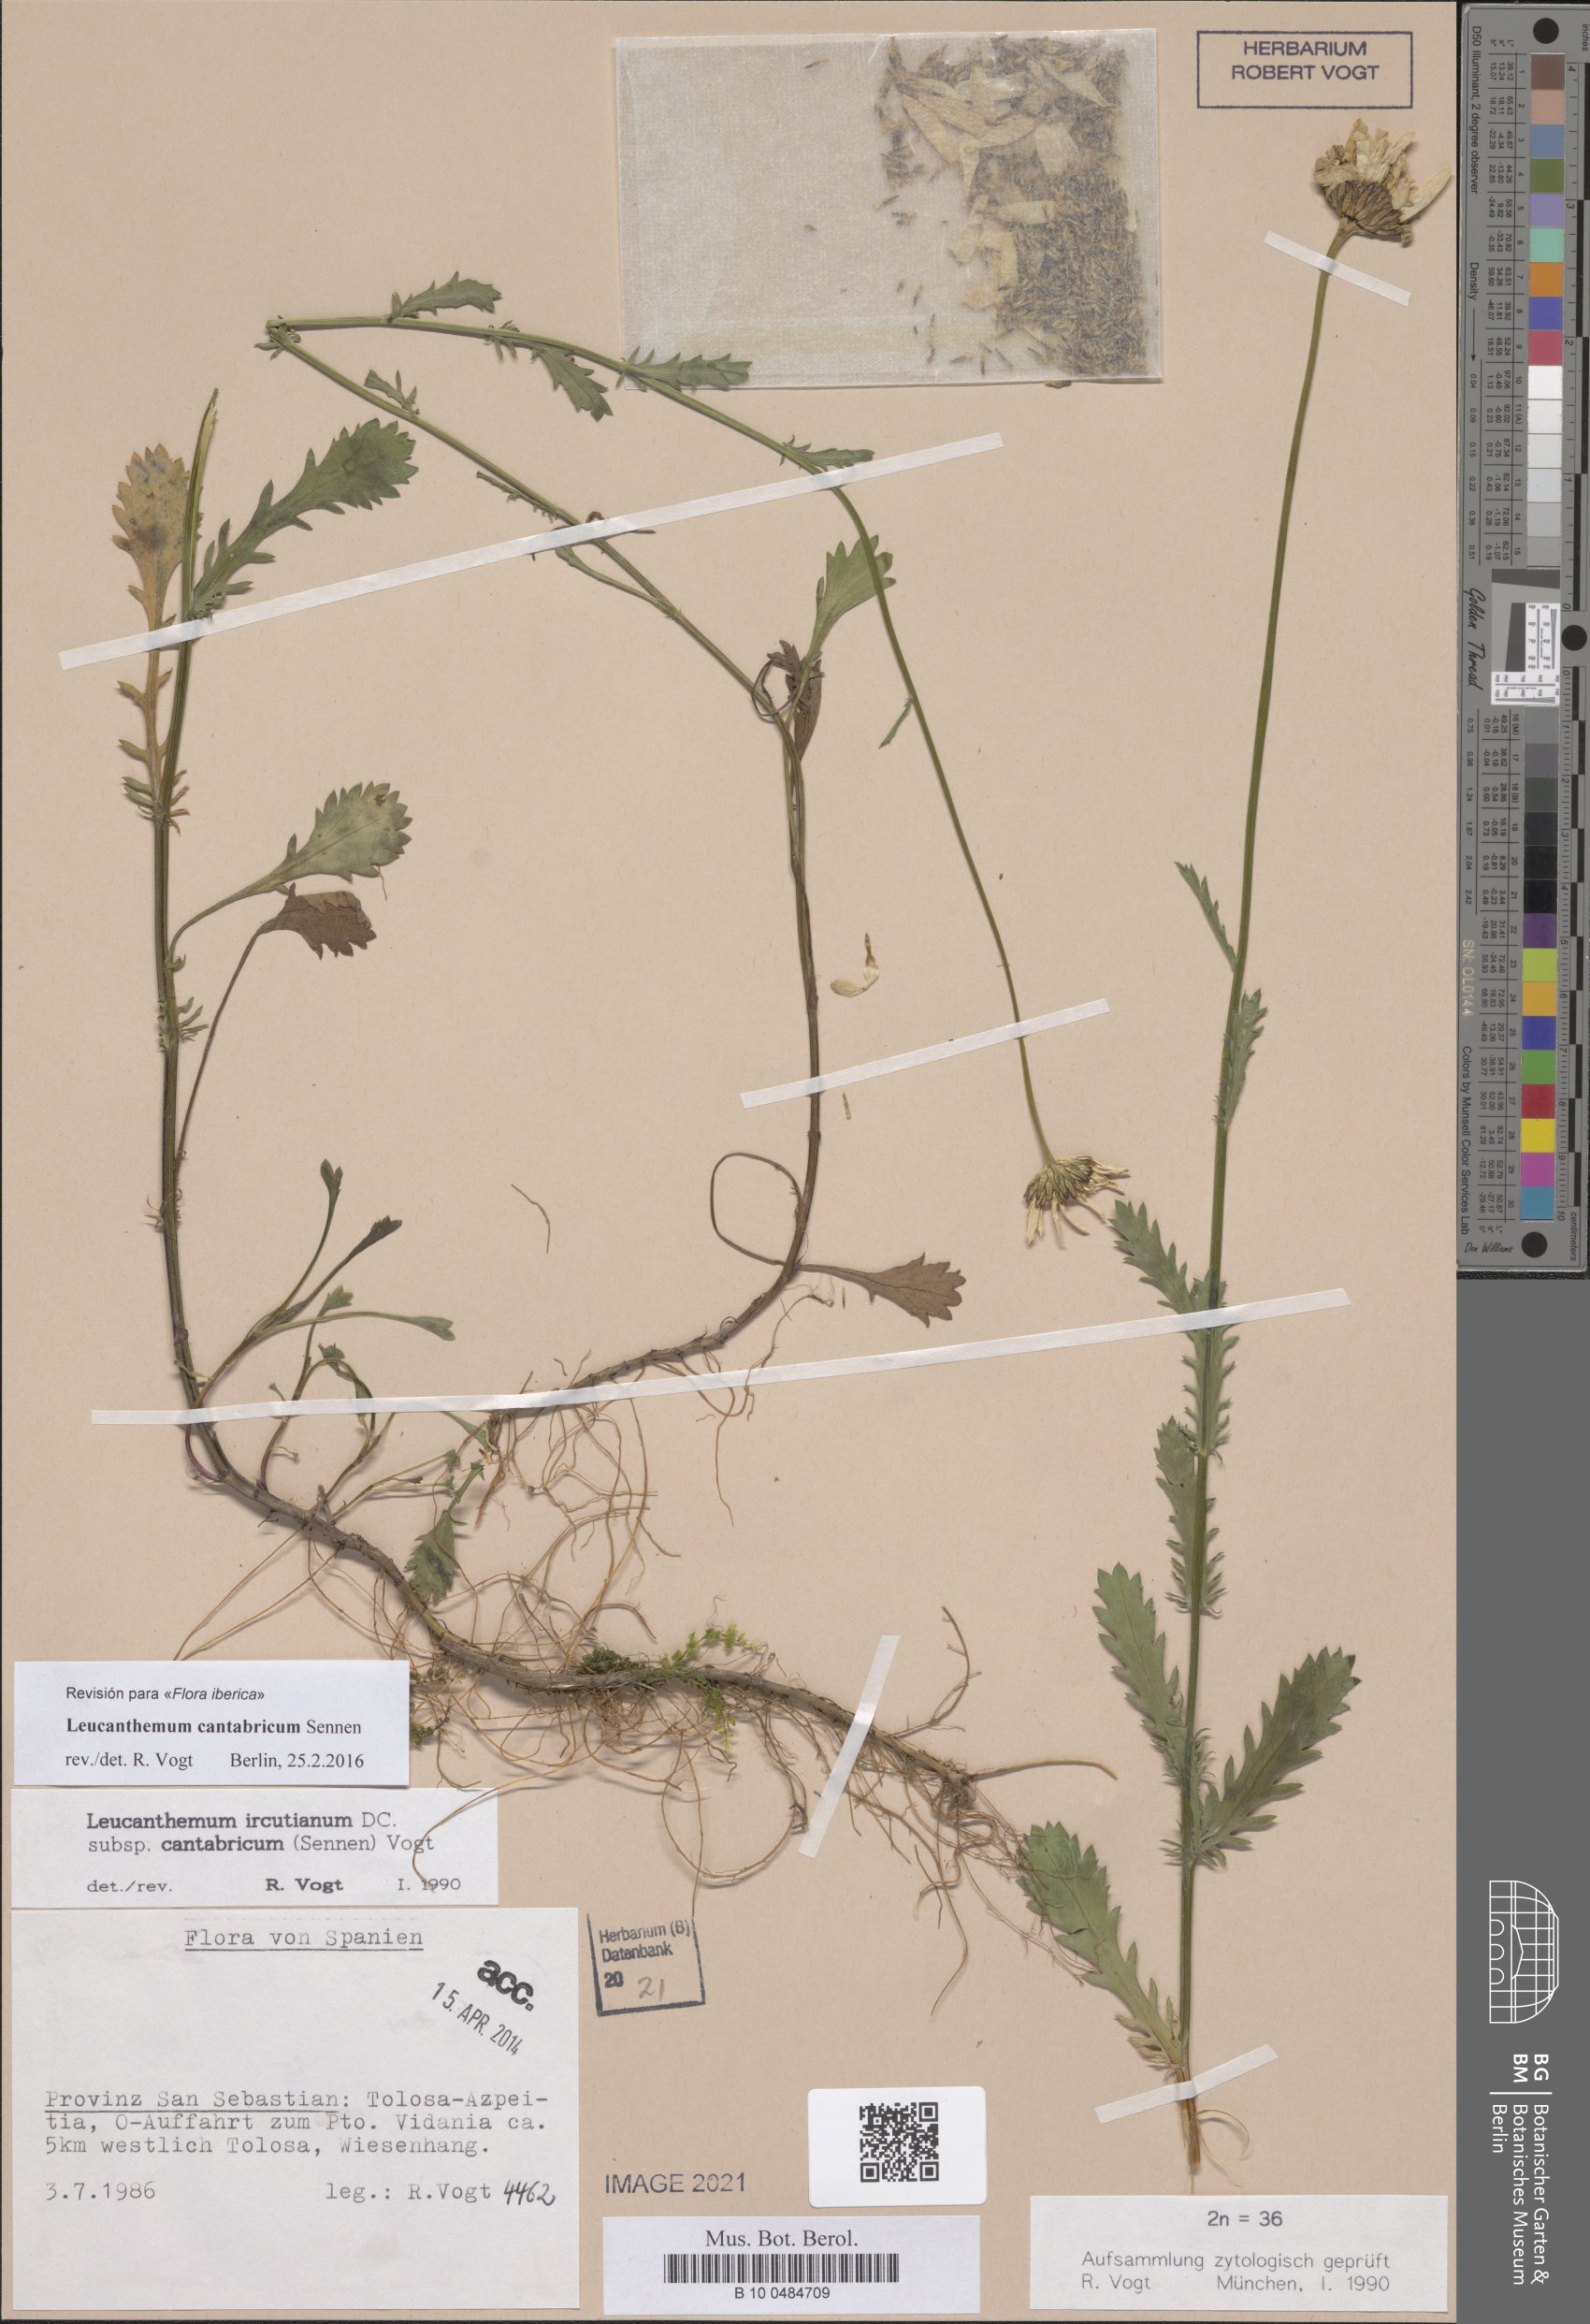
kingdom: Plantae
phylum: Tracheophyta
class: Magnoliopsida
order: Asterales
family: Asteraceae
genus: Leucanthemum
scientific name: Leucanthemum cantabricum
